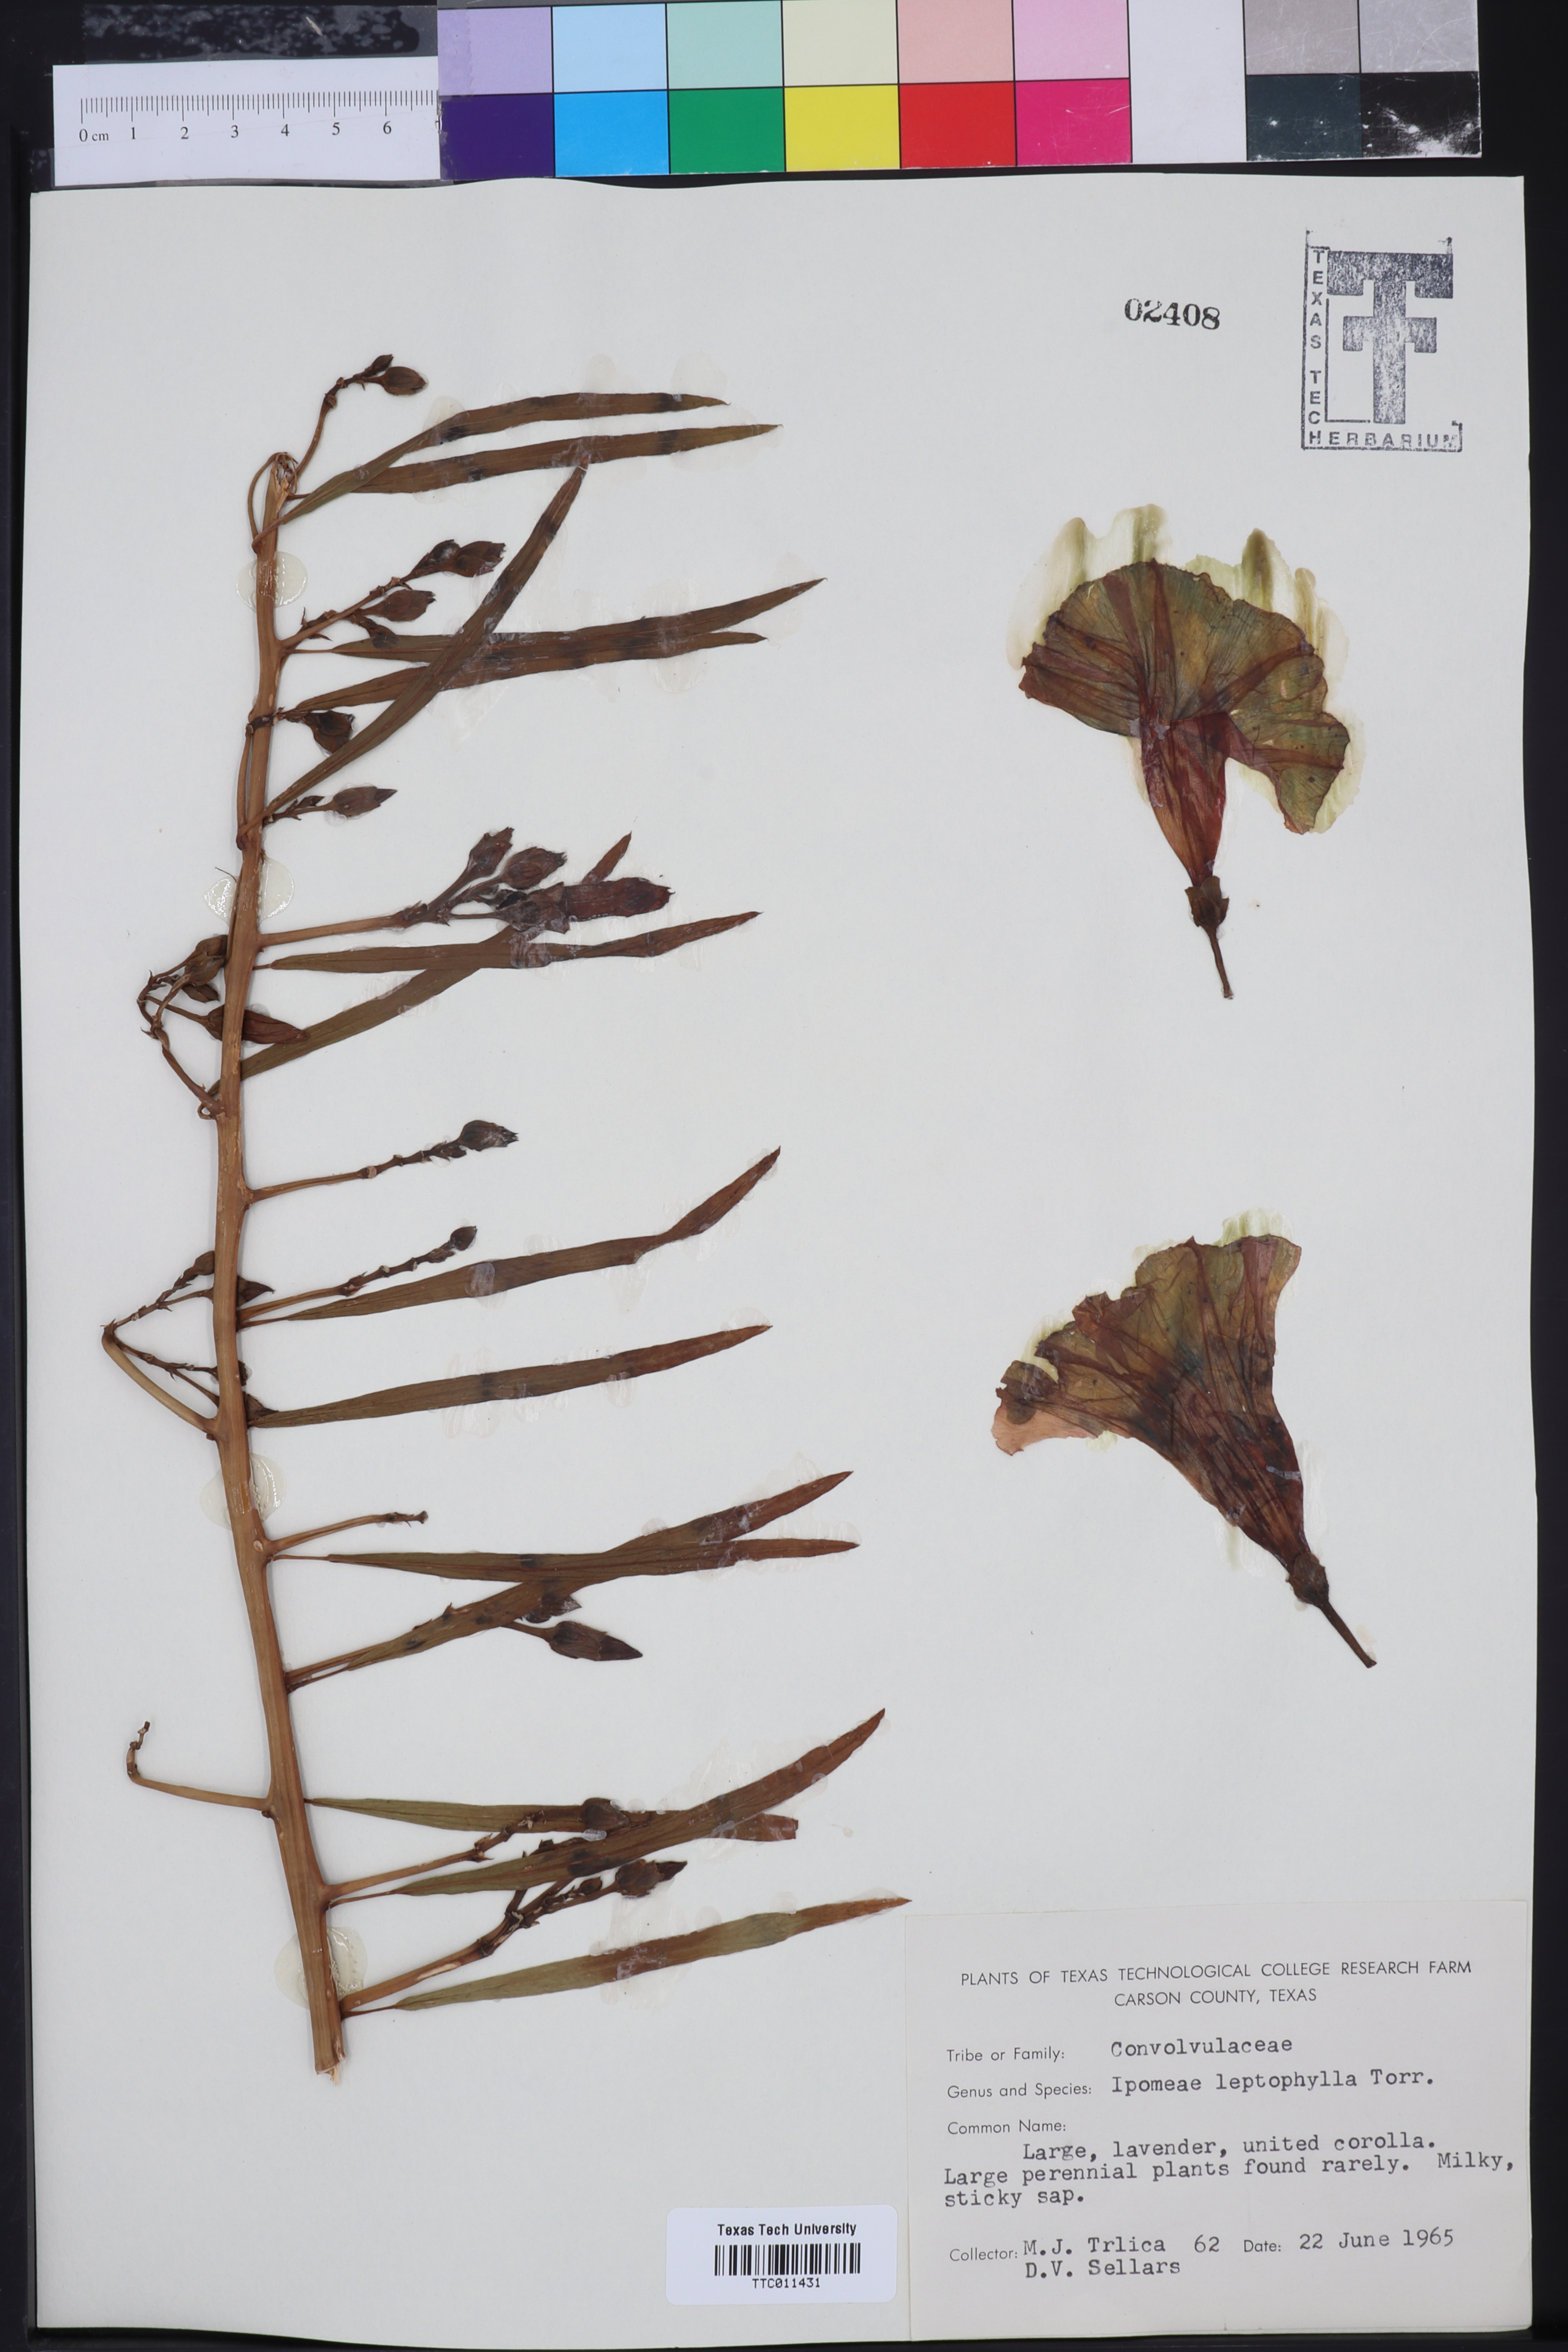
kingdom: Plantae
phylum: Tracheophyta
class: Magnoliopsida
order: Solanales
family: Convolvulaceae
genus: Ipomoea
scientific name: Ipomoea leptophylla
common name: Bush moonflower
